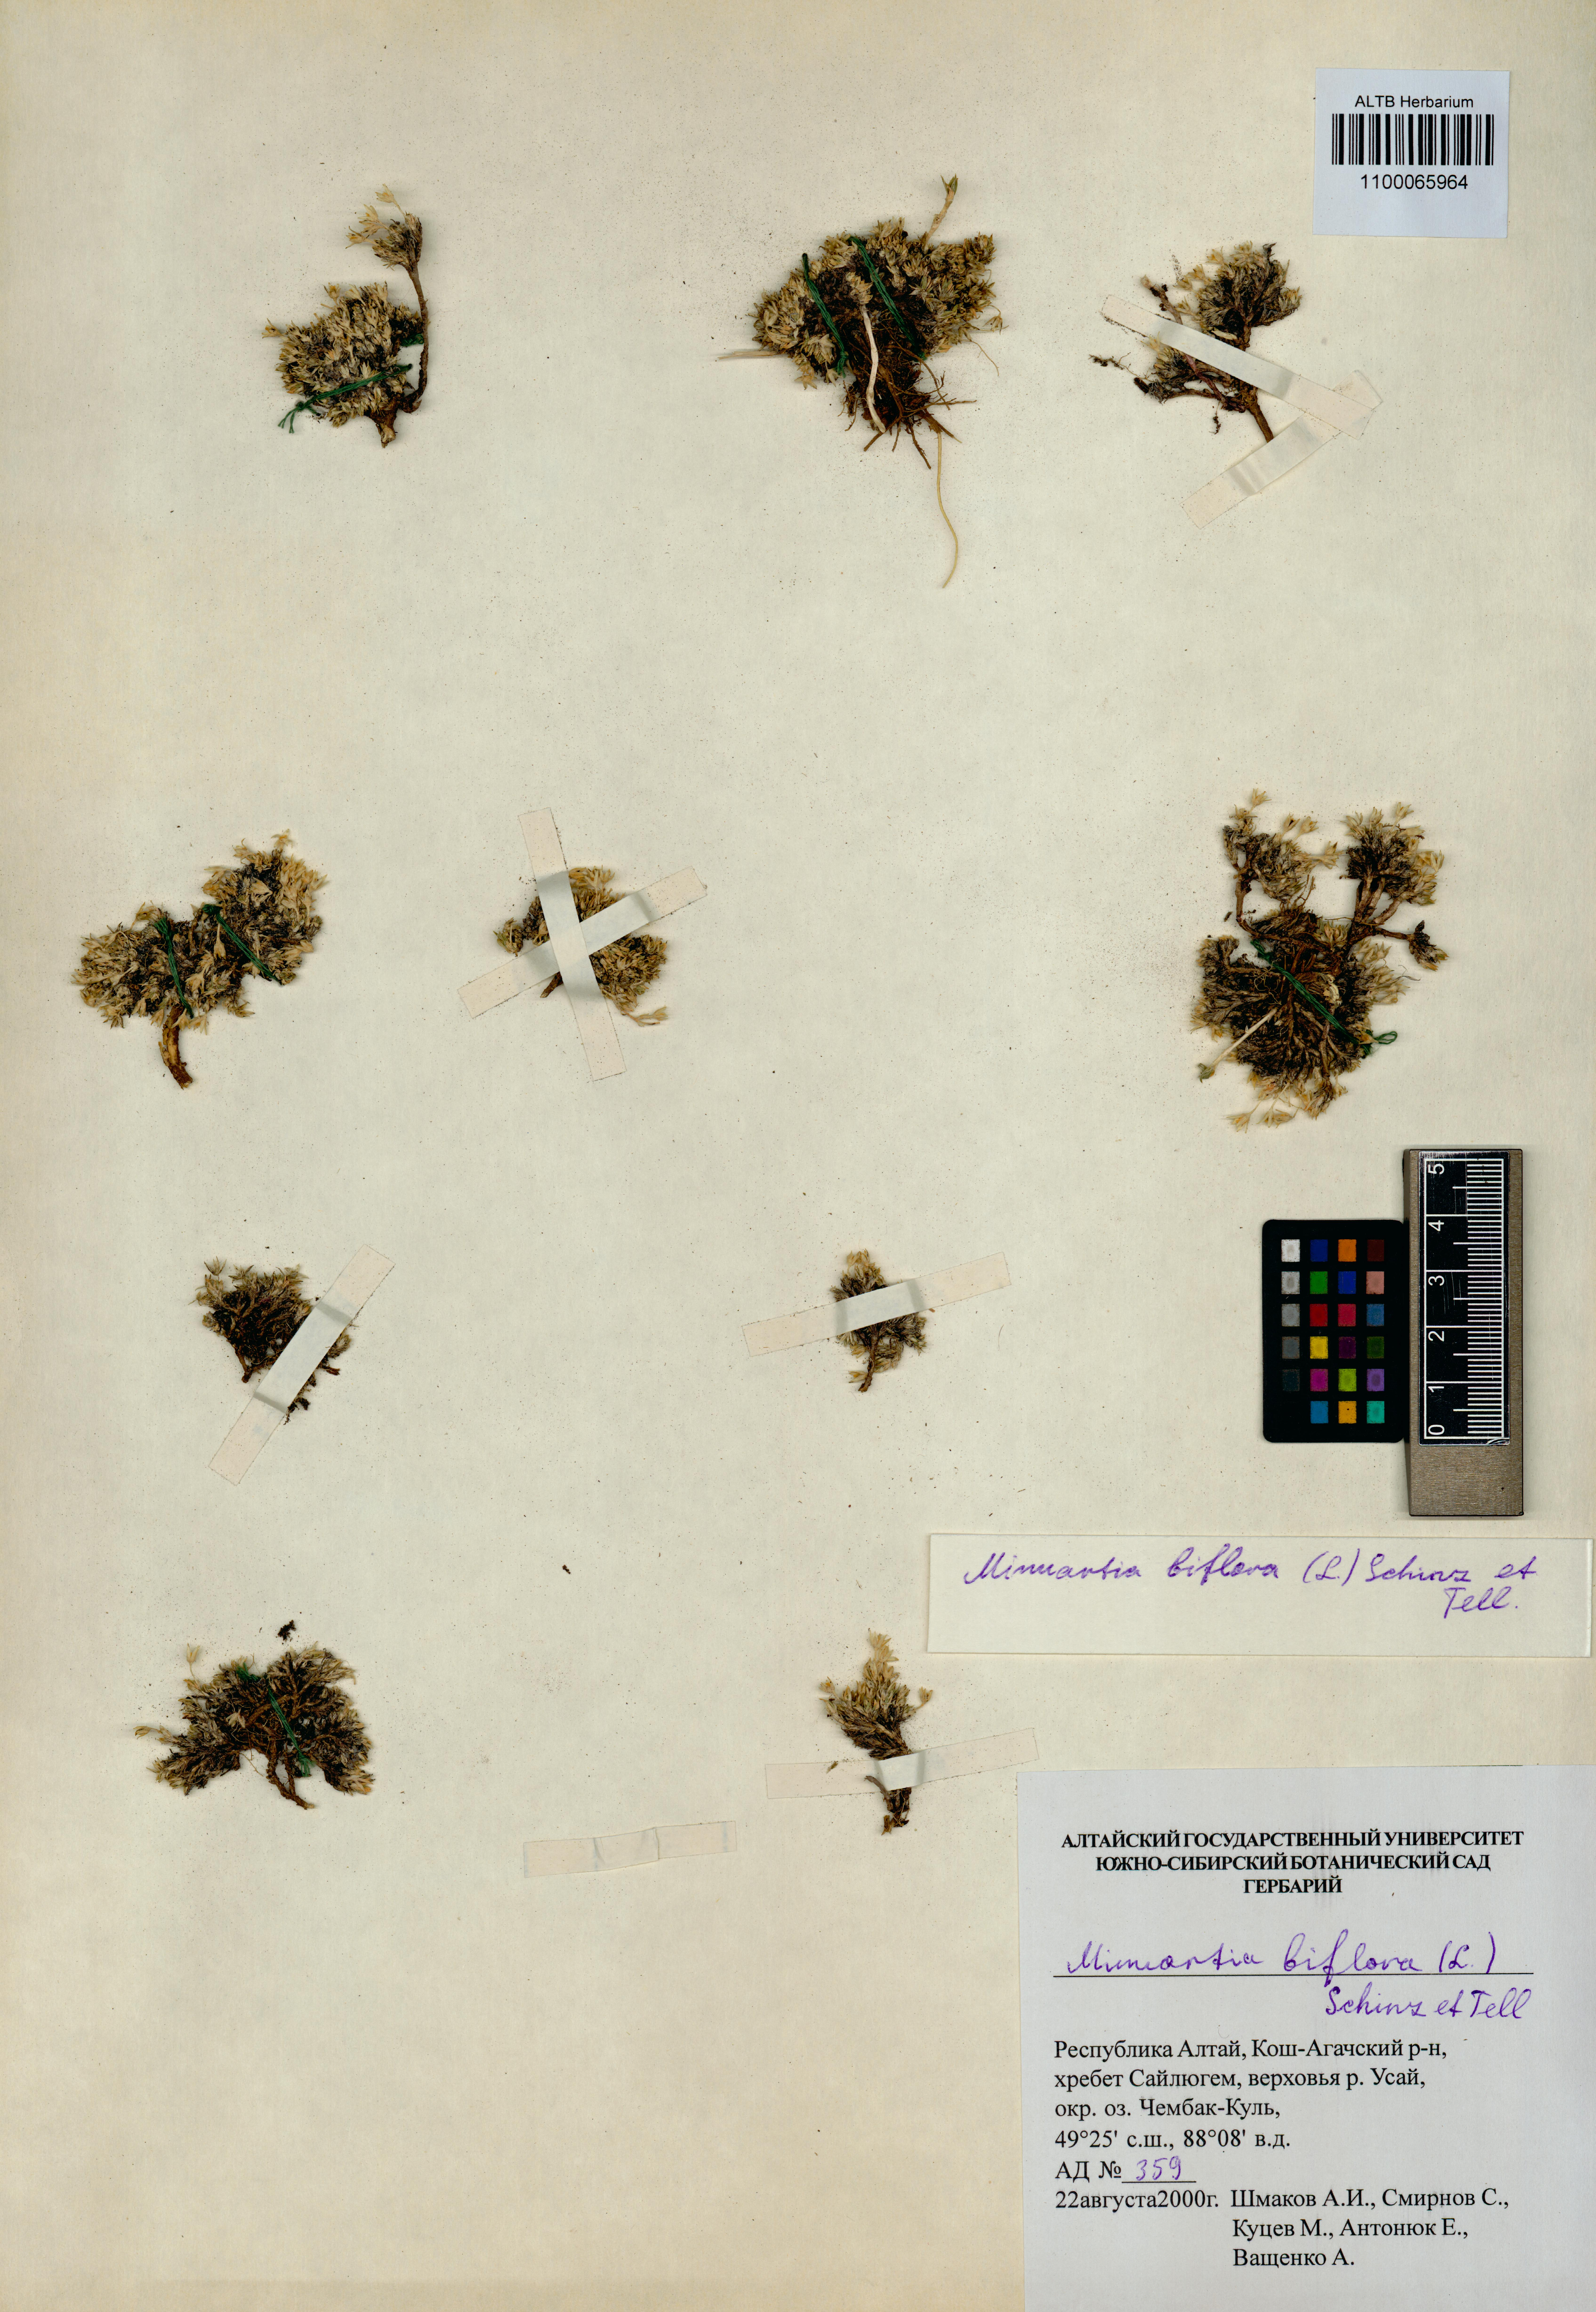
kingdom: Plantae
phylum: Tracheophyta
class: Magnoliopsida
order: Caryophyllales
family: Caryophyllaceae
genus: Cherleria
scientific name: Cherleria biflora
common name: Mountain sandwort
